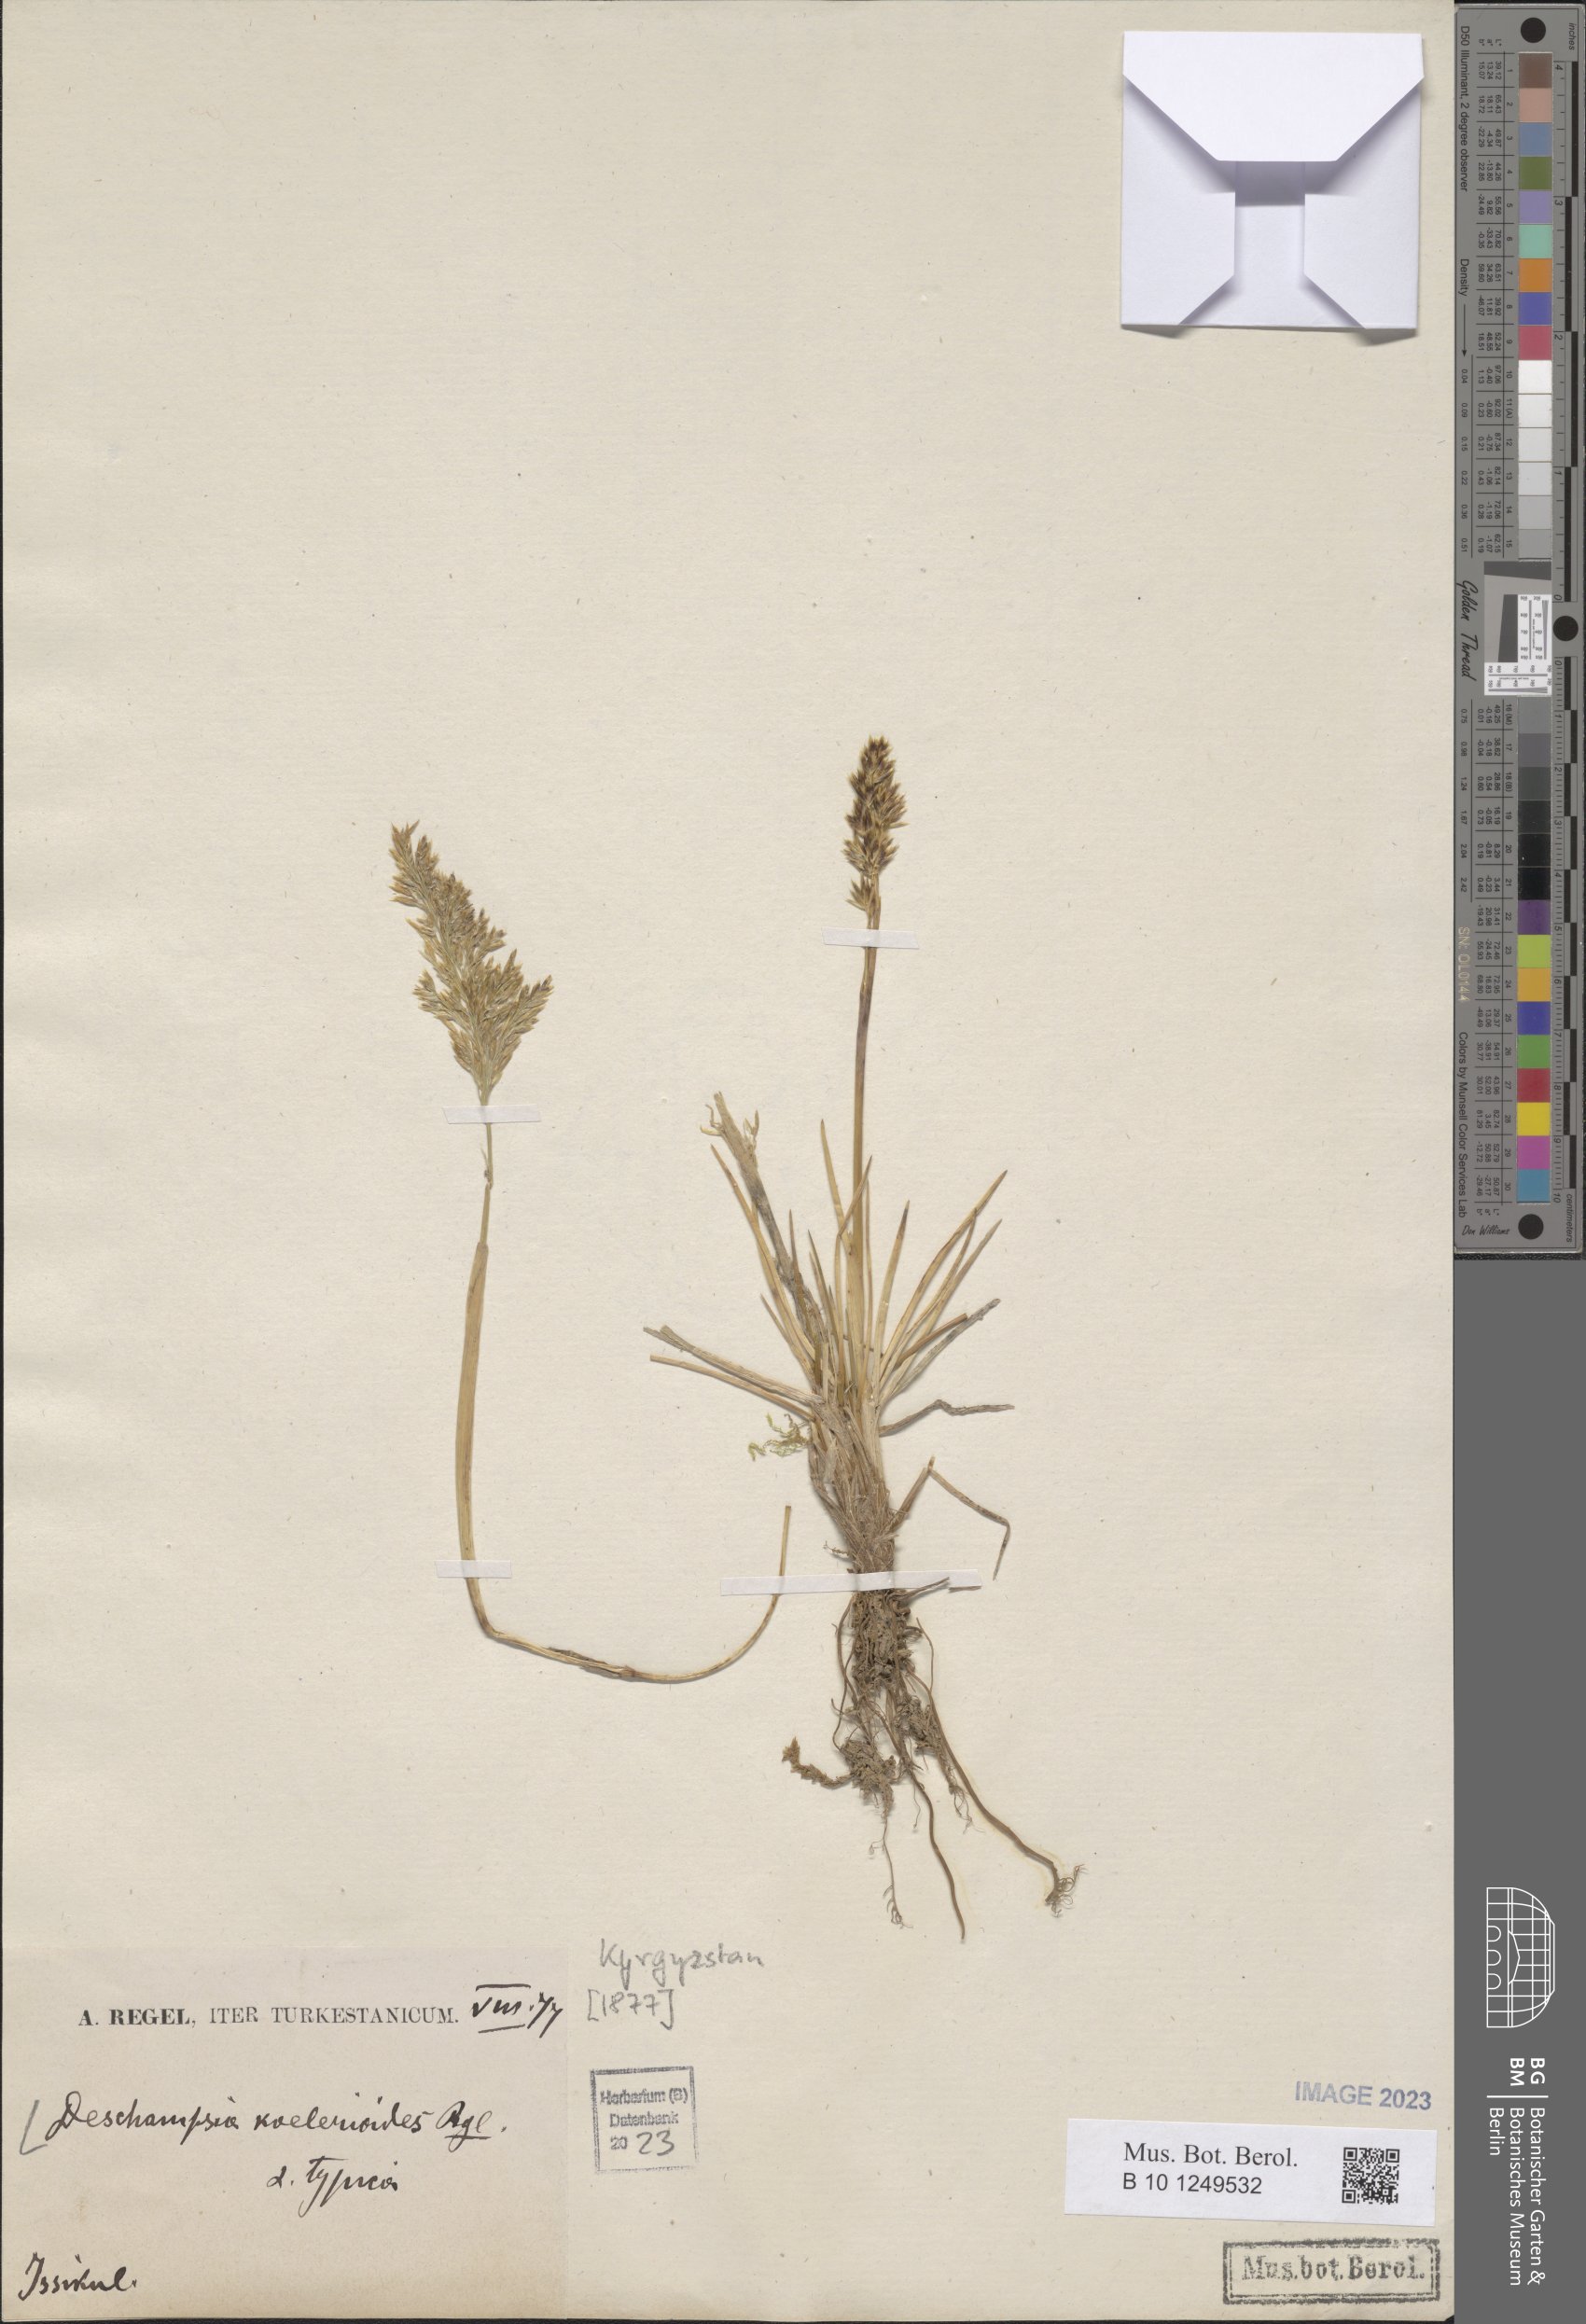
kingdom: Plantae
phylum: Tracheophyta
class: Liliopsida
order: Poales
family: Poaceae
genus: Deschampsia
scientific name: Deschampsia koelerioides
